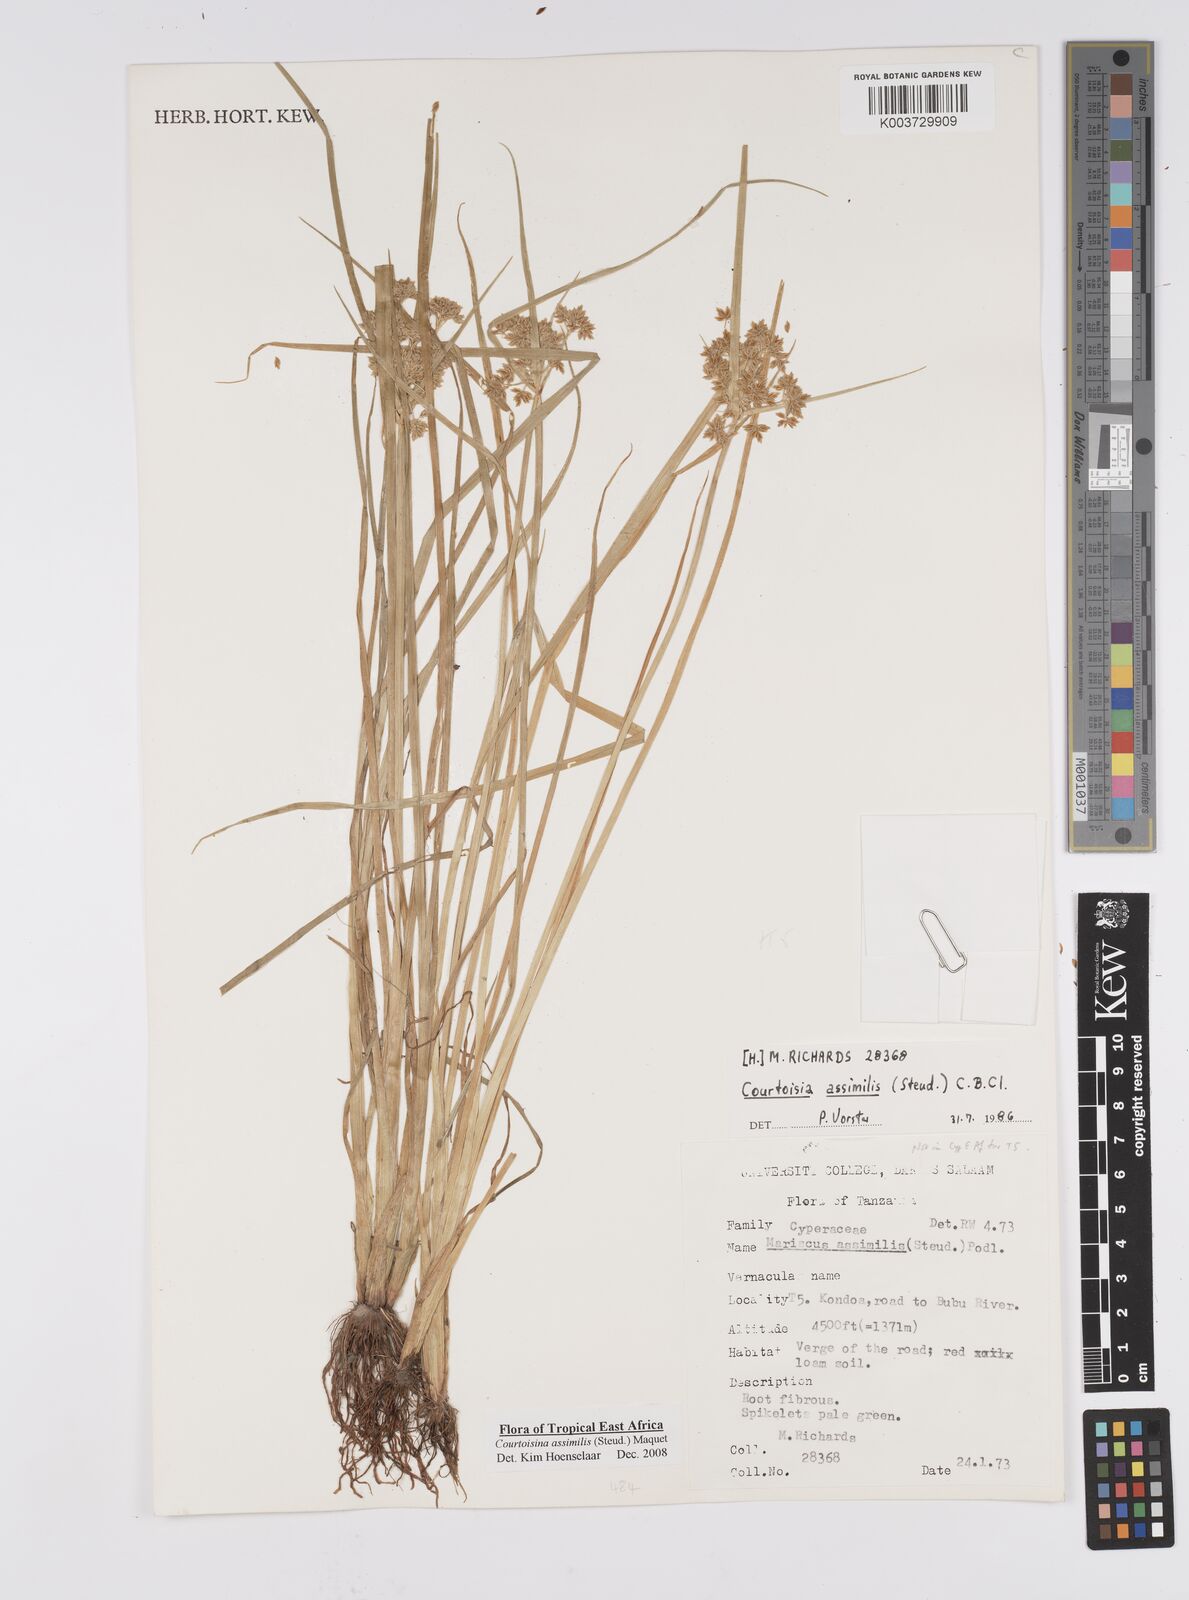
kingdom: Plantae
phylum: Tracheophyta
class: Liliopsida
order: Poales
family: Cyperaceae
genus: Cyperus
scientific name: Cyperus assimilis
